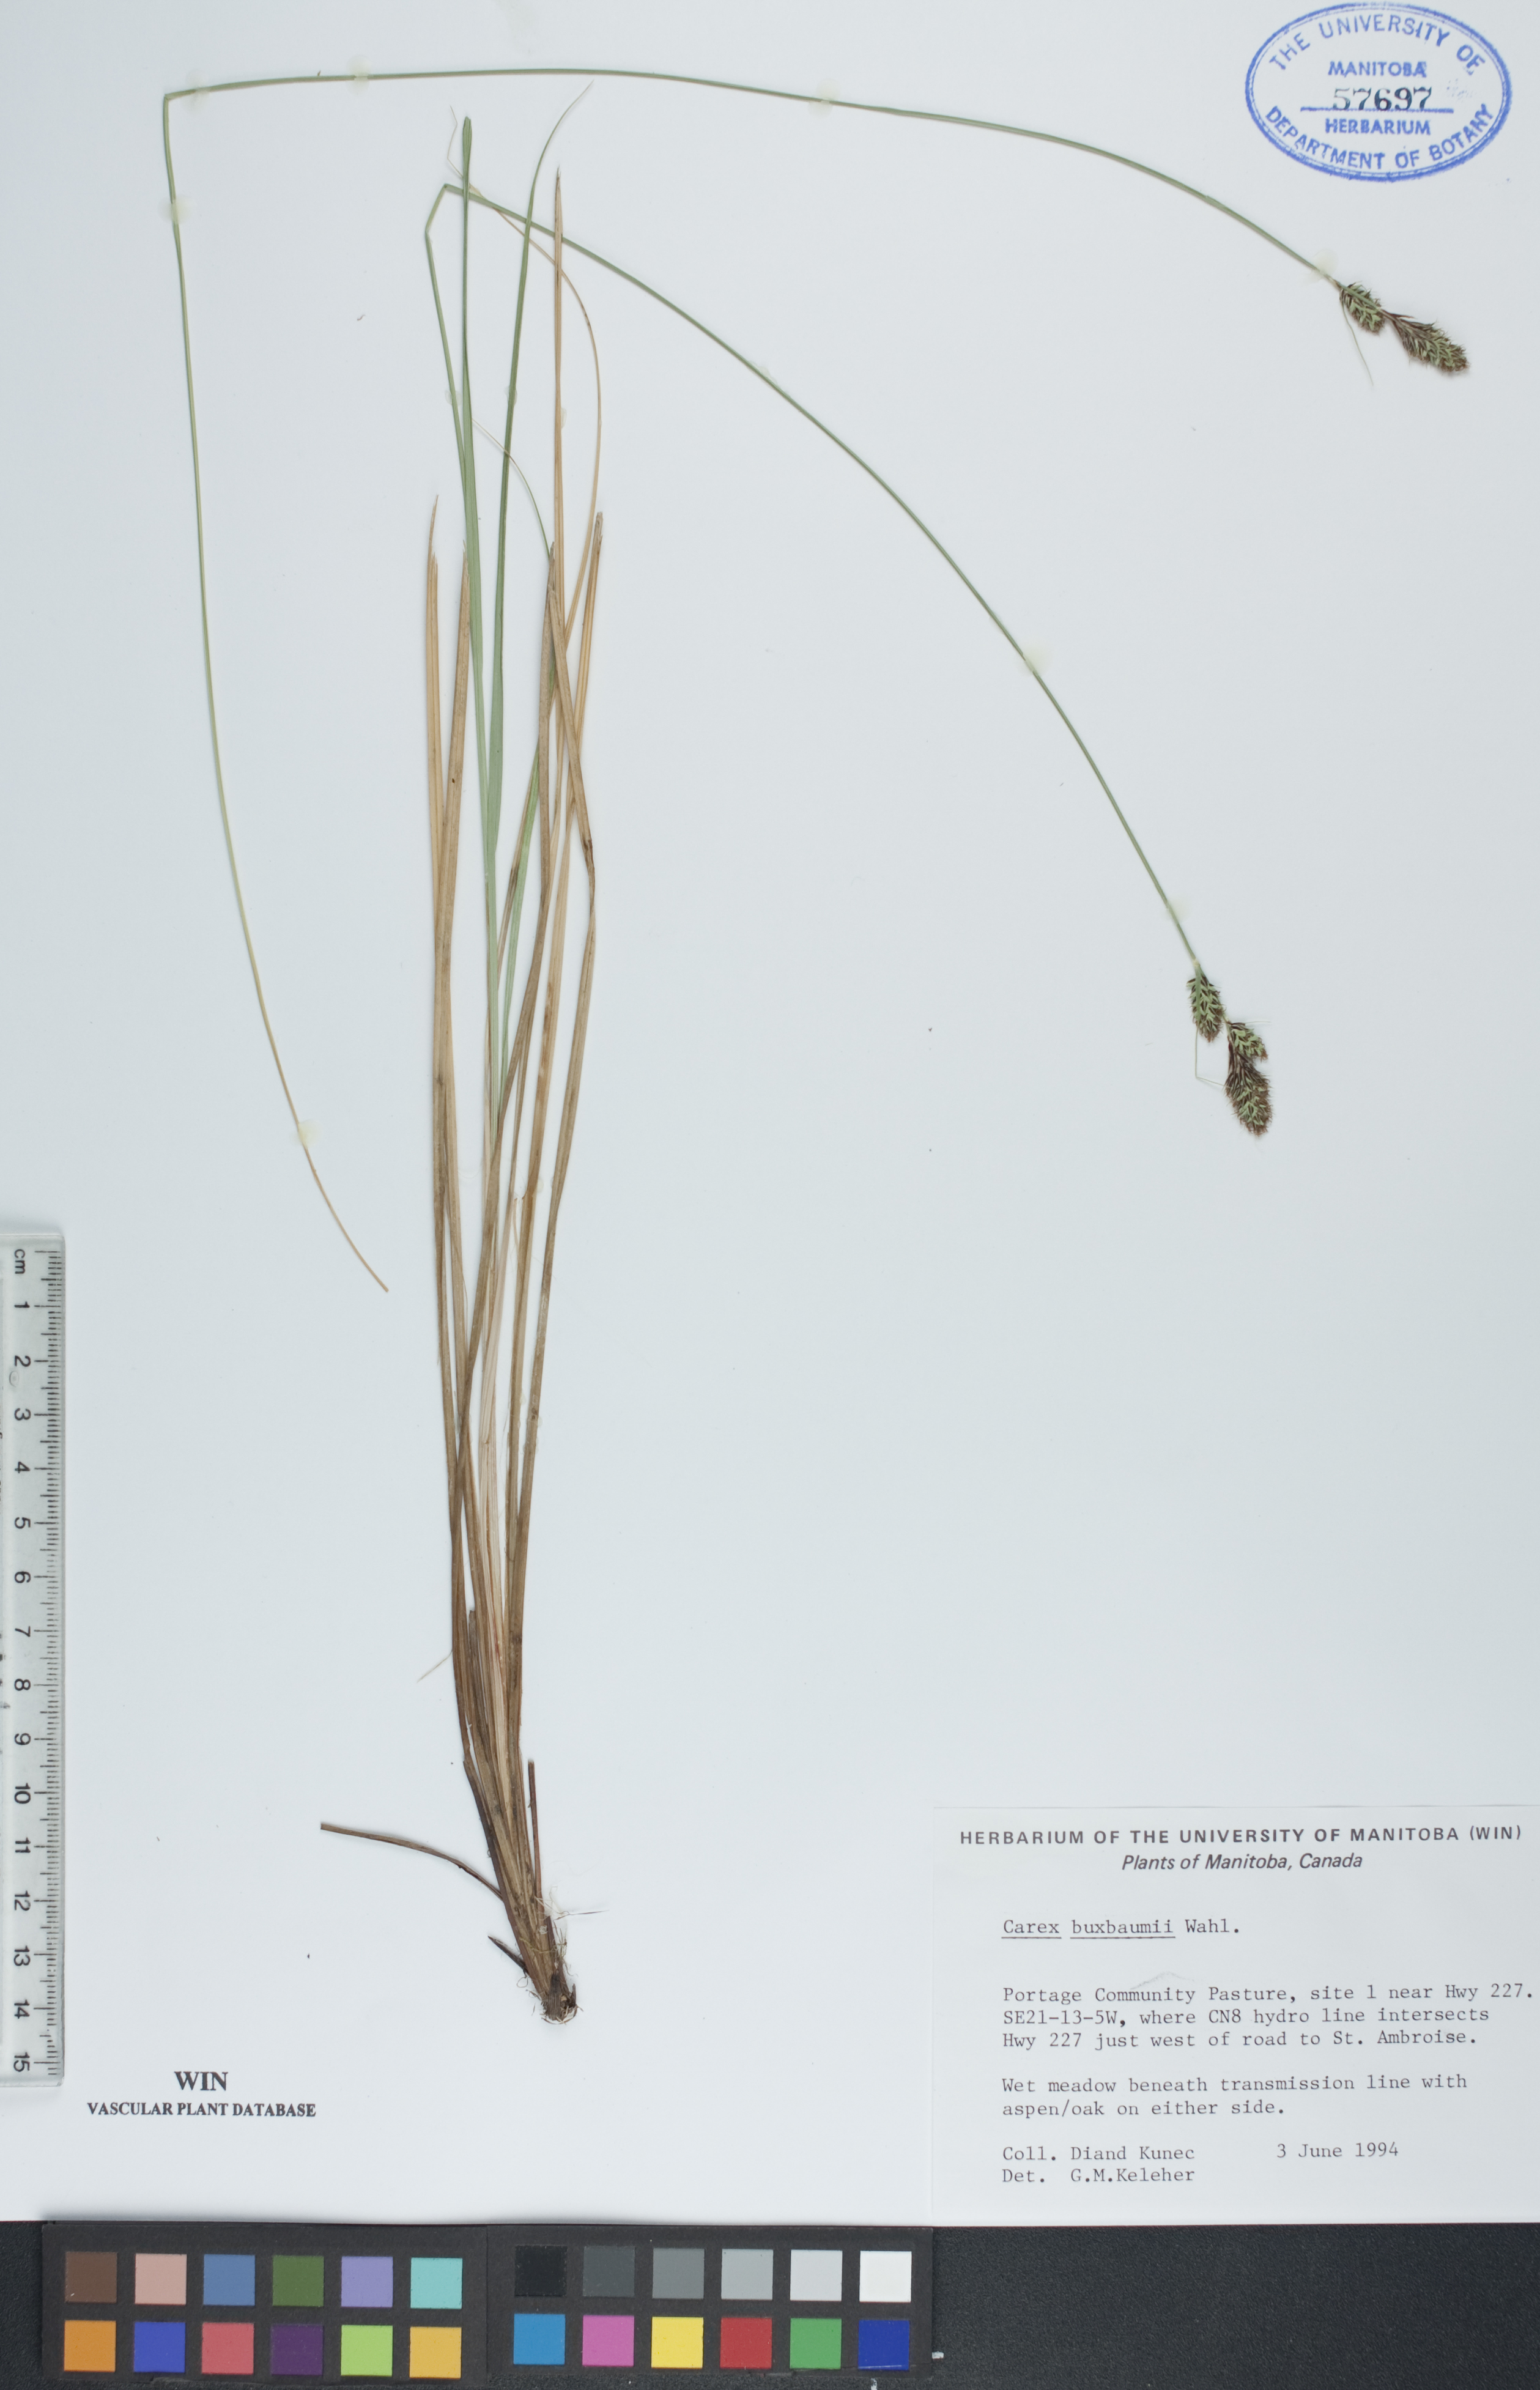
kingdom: Plantae
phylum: Tracheophyta
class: Liliopsida
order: Poales
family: Cyperaceae
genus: Carex
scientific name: Carex buxbaumii
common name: Club sedge
